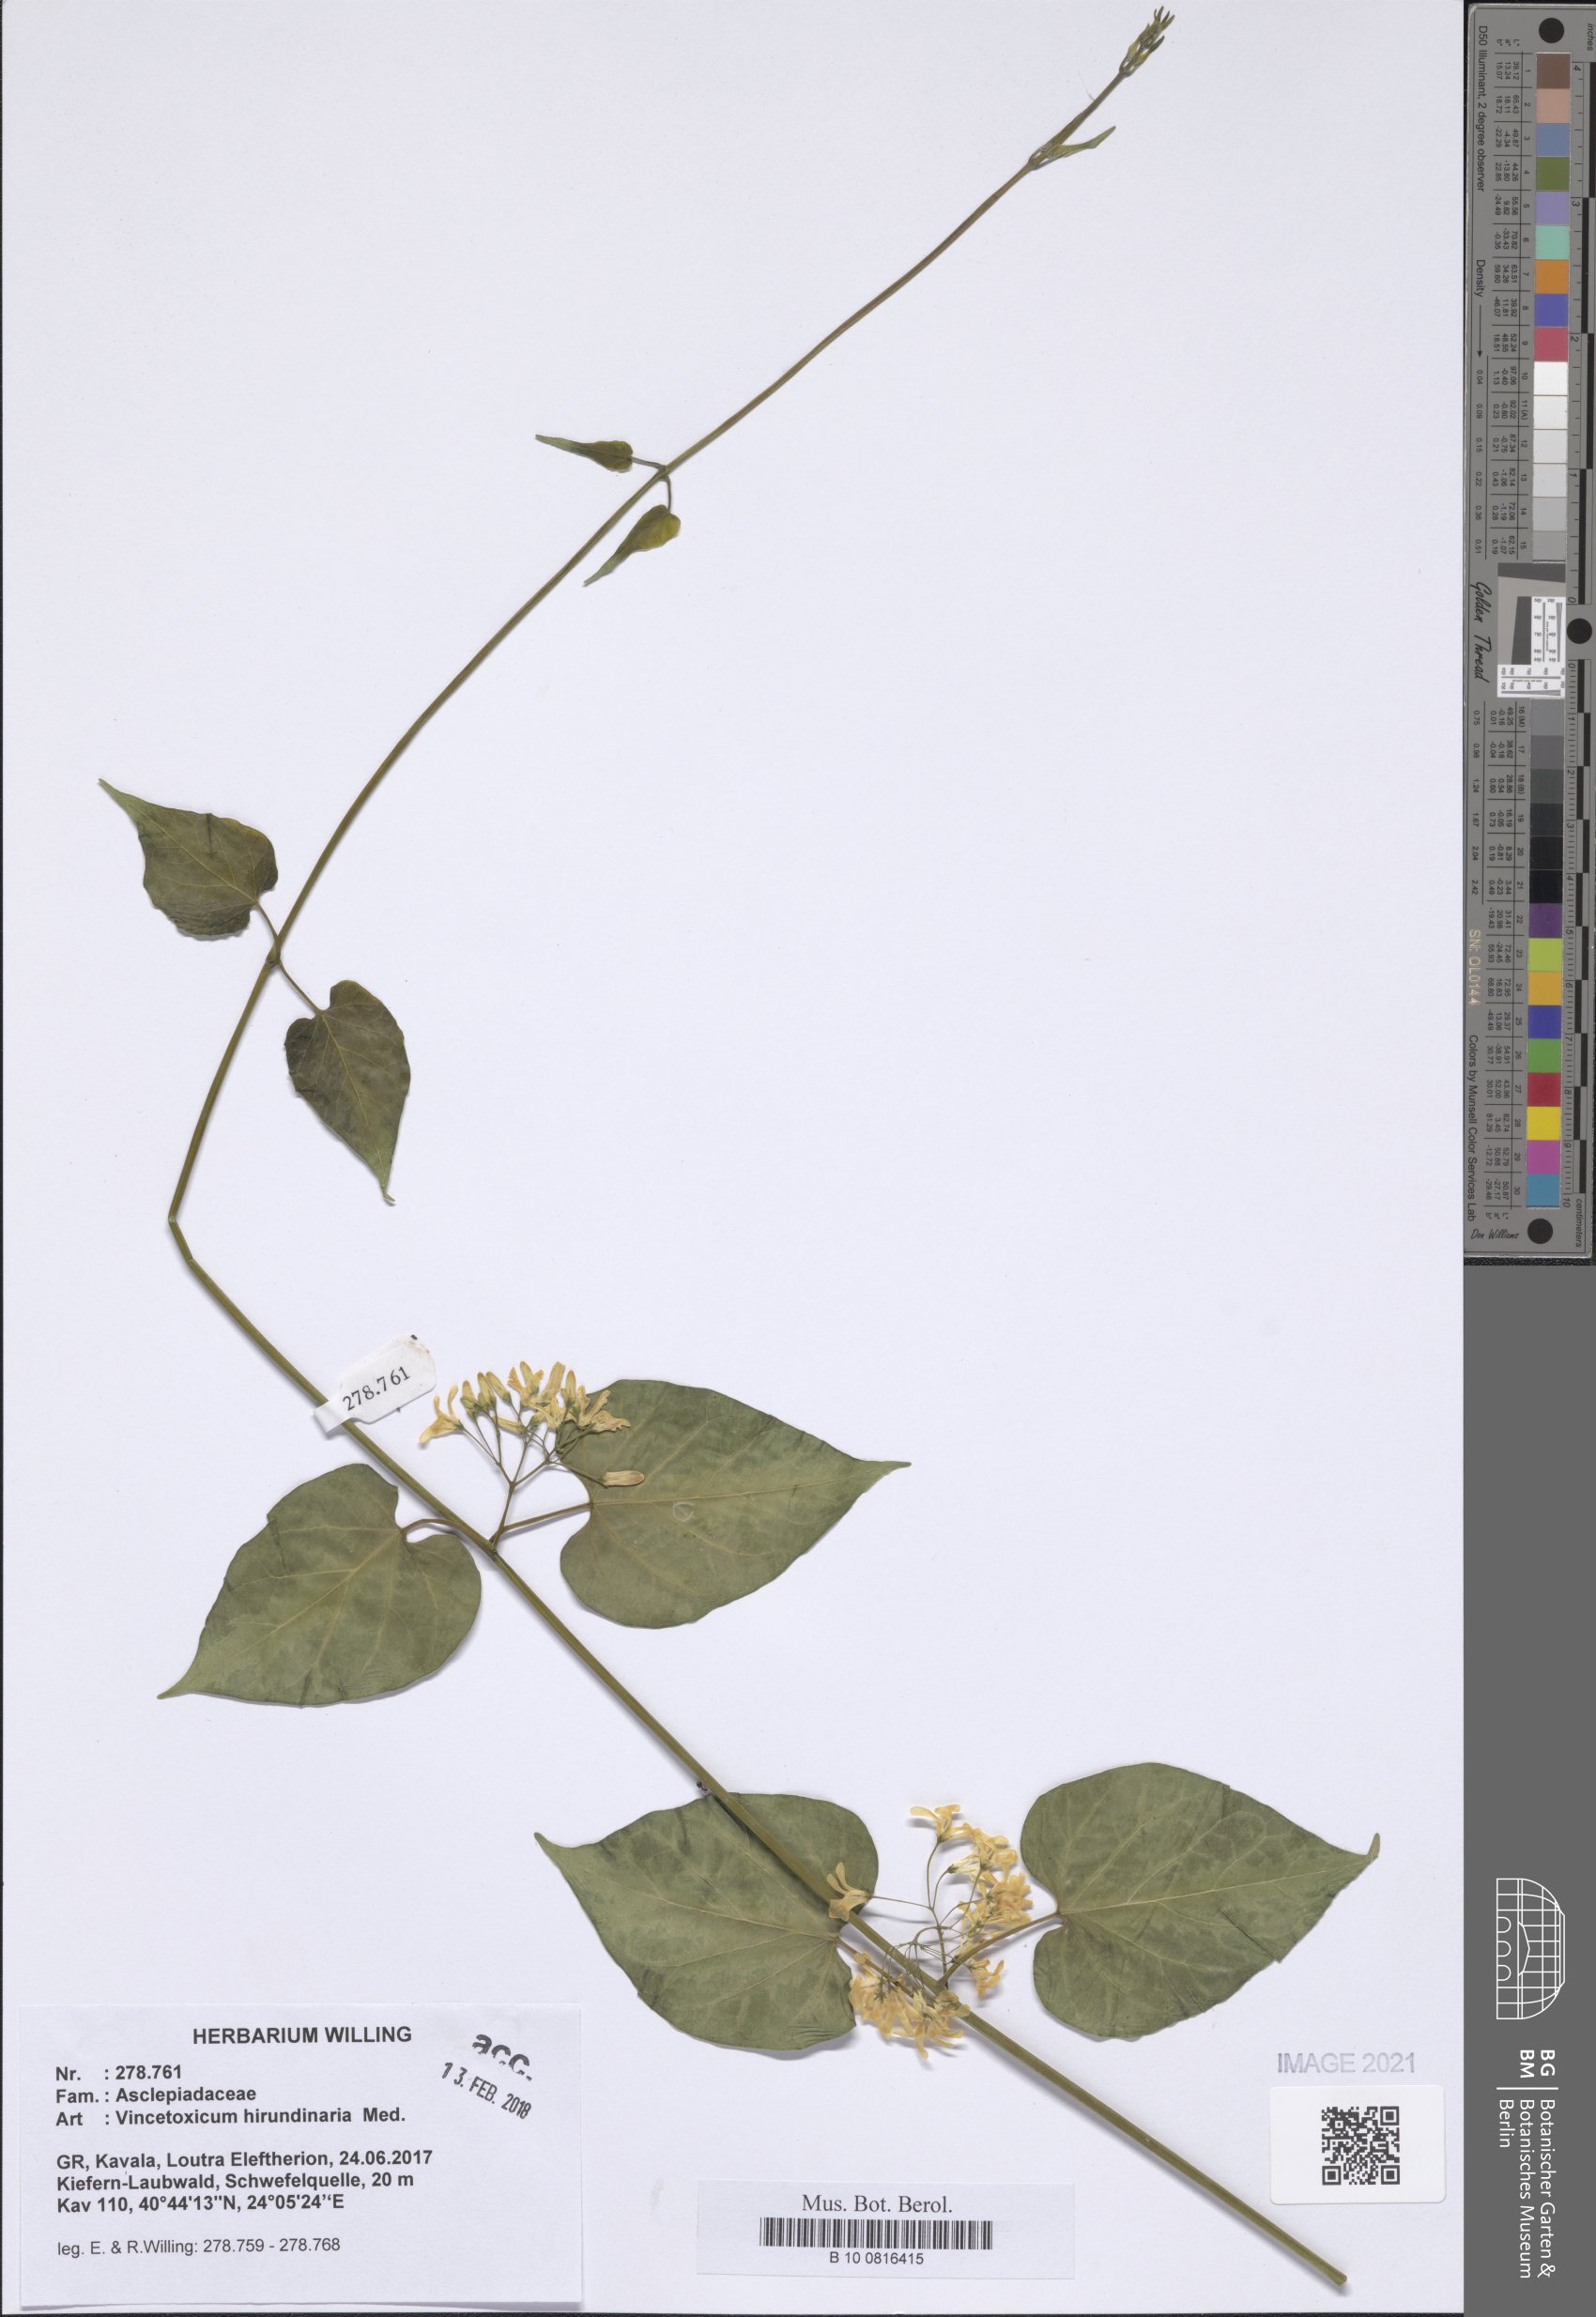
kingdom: Plantae
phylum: Tracheophyta
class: Magnoliopsida
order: Gentianales
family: Apocynaceae
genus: Vincetoxicum
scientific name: Vincetoxicum hirundinaria
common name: White swallowwort
